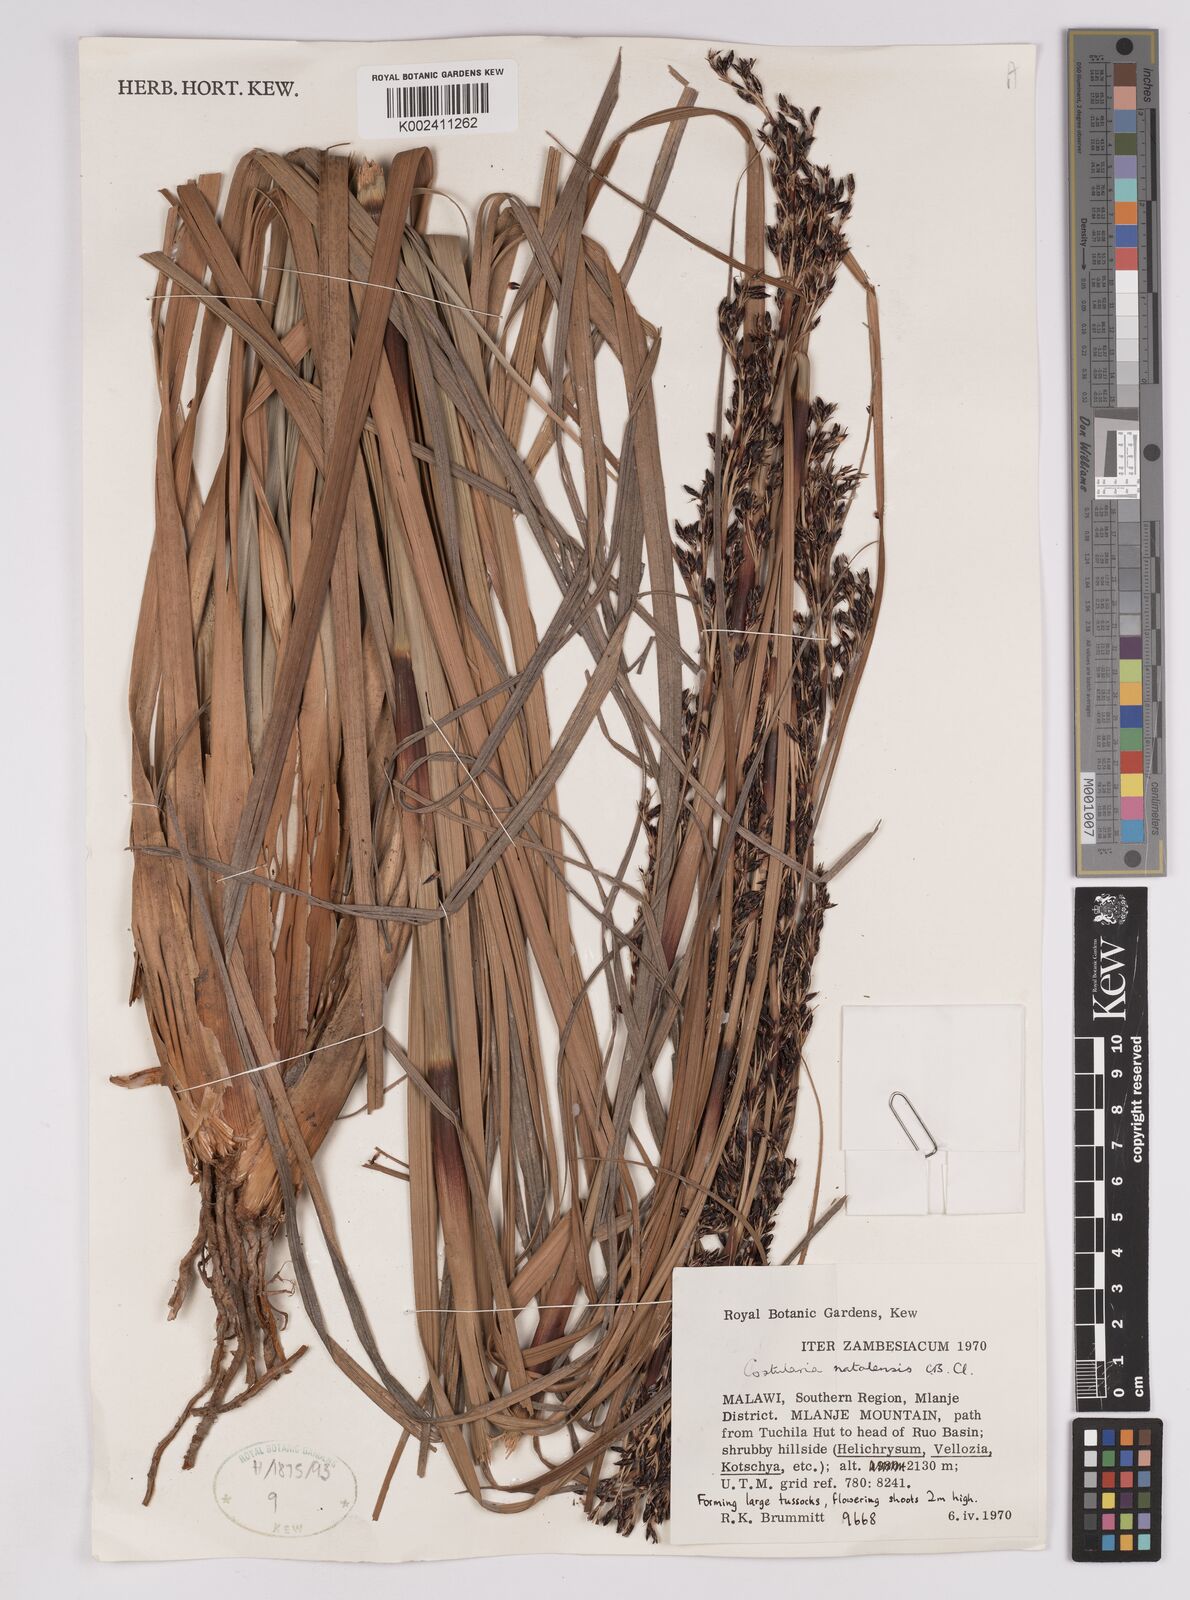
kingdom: Plantae
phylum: Tracheophyta
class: Liliopsida
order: Poales
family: Cyperaceae
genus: Costularia
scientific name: Costularia natalensis
